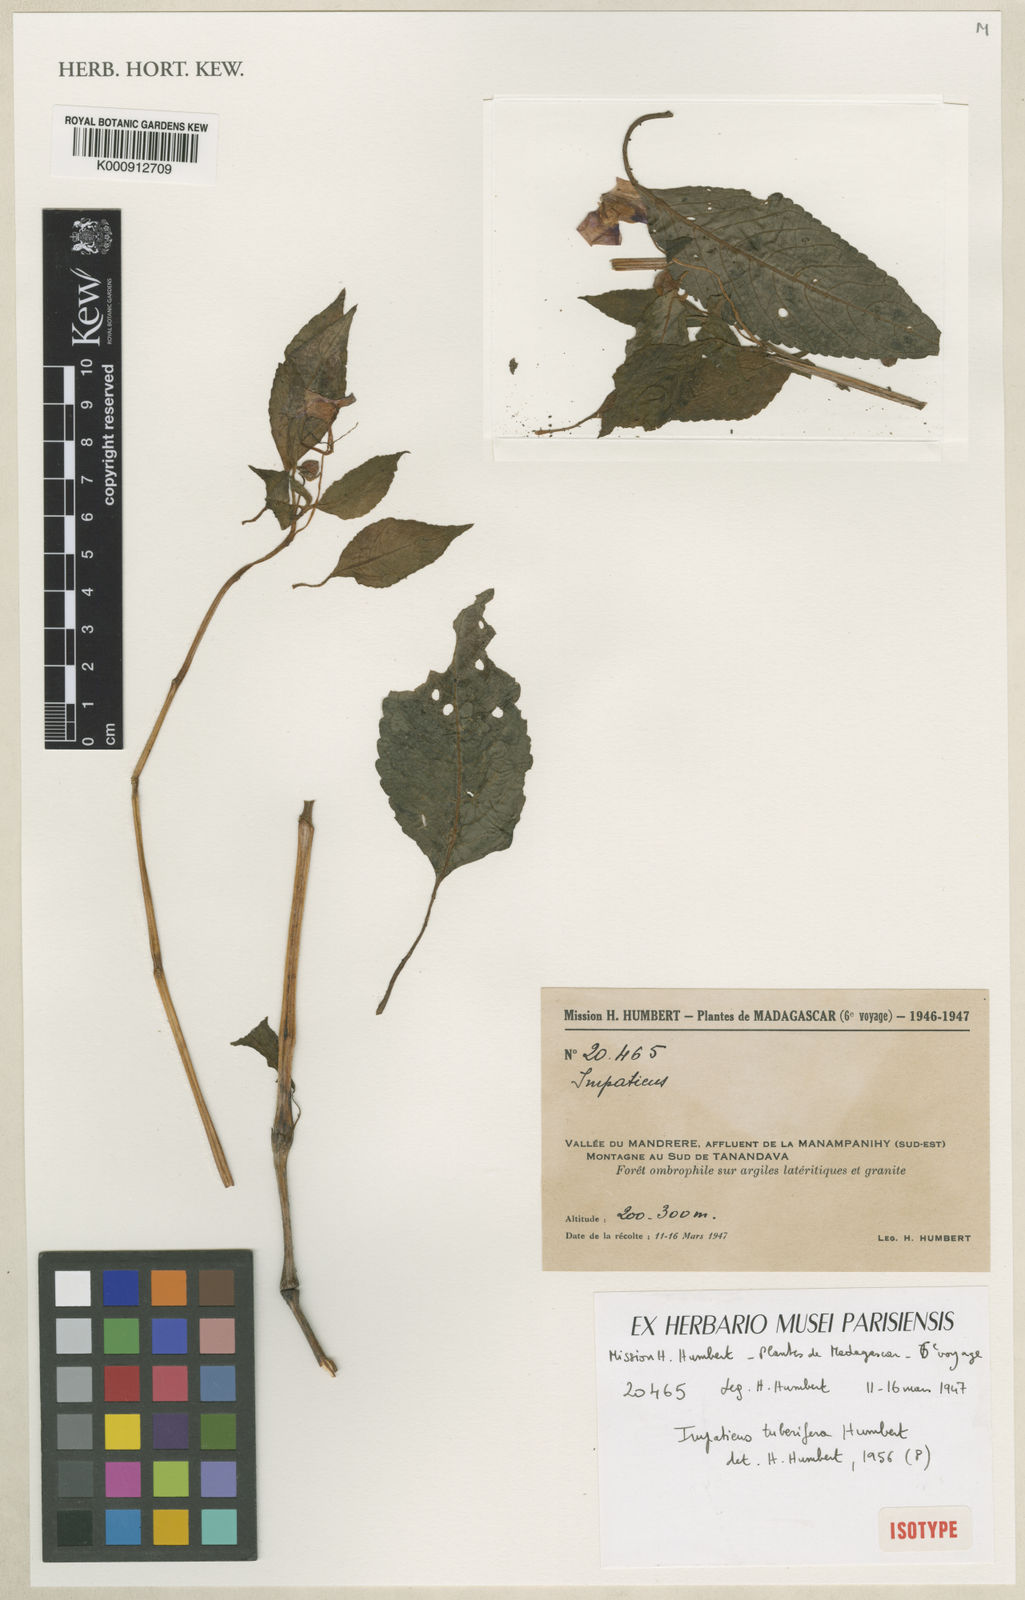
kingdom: Plantae
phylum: Tracheophyta
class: Magnoliopsida
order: Ericales
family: Balsaminaceae
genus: Impatiens
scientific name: Impatiens tuberifera
